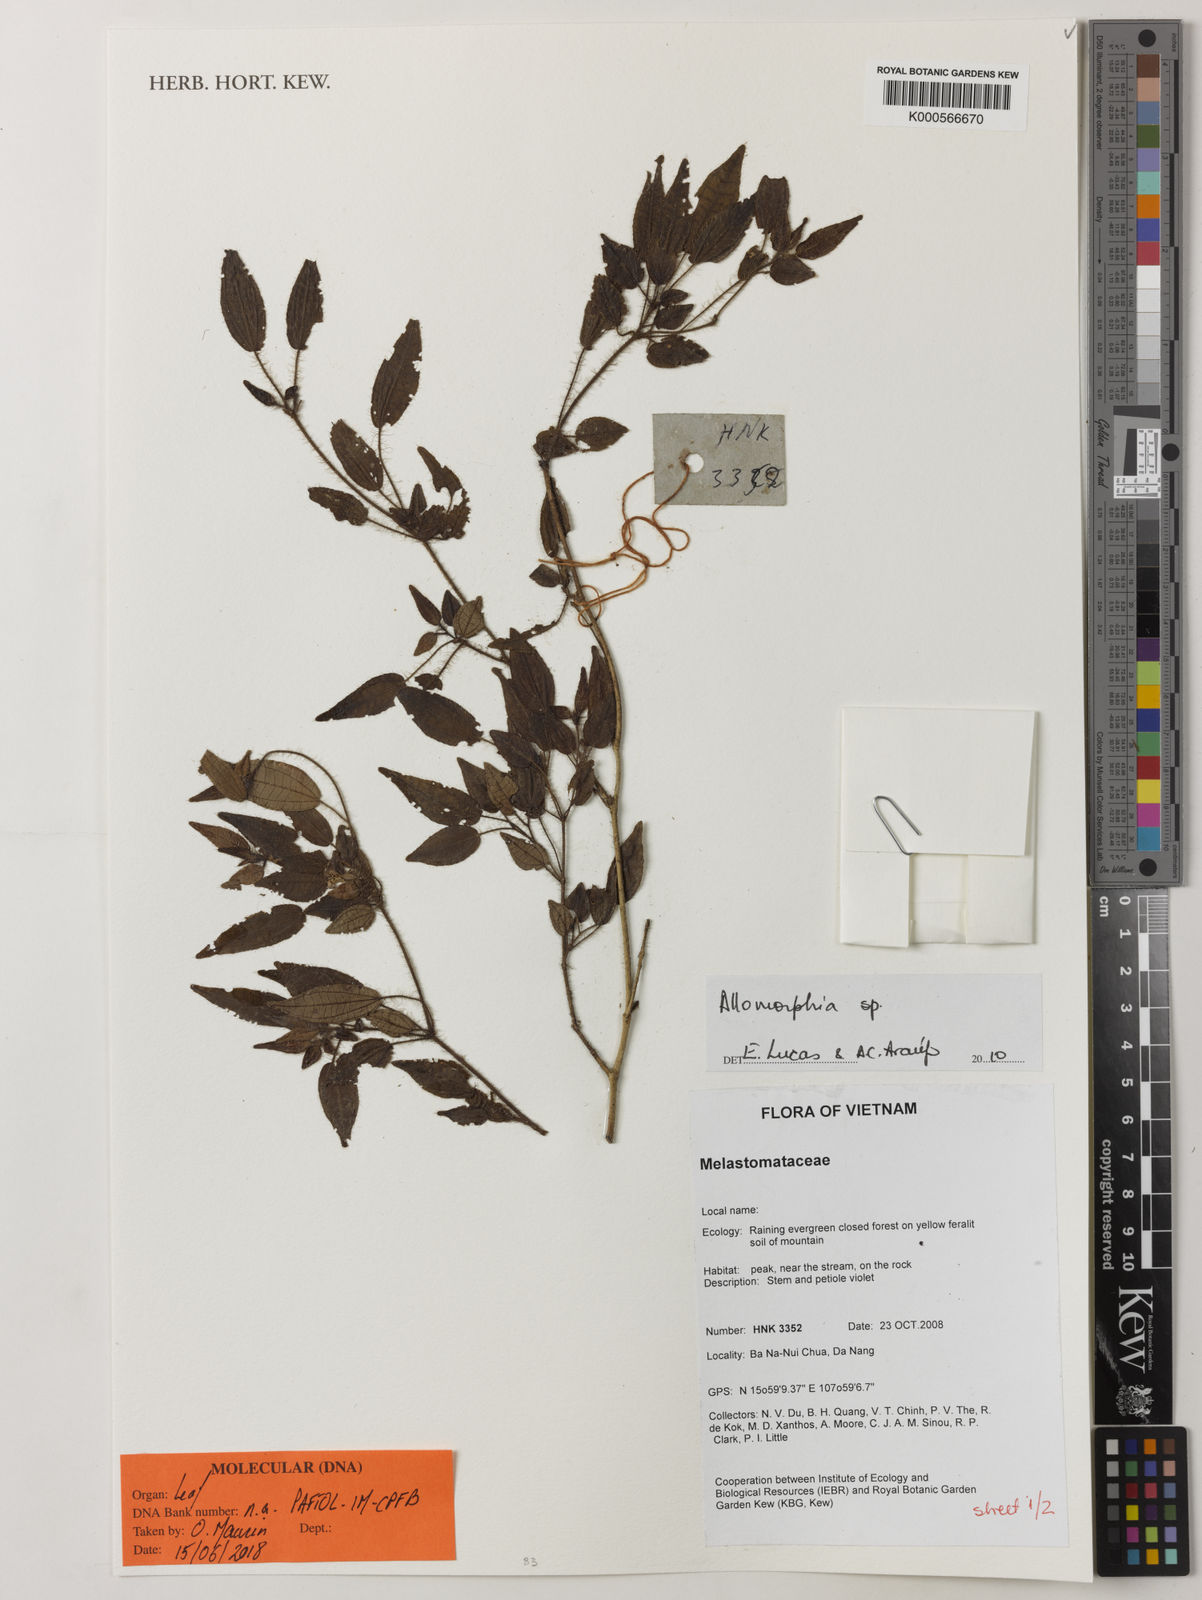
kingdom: Plantae
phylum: Tracheophyta
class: Magnoliopsida
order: Myrtales
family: Melastomataceae
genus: Allomorphia
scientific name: Allomorphia
